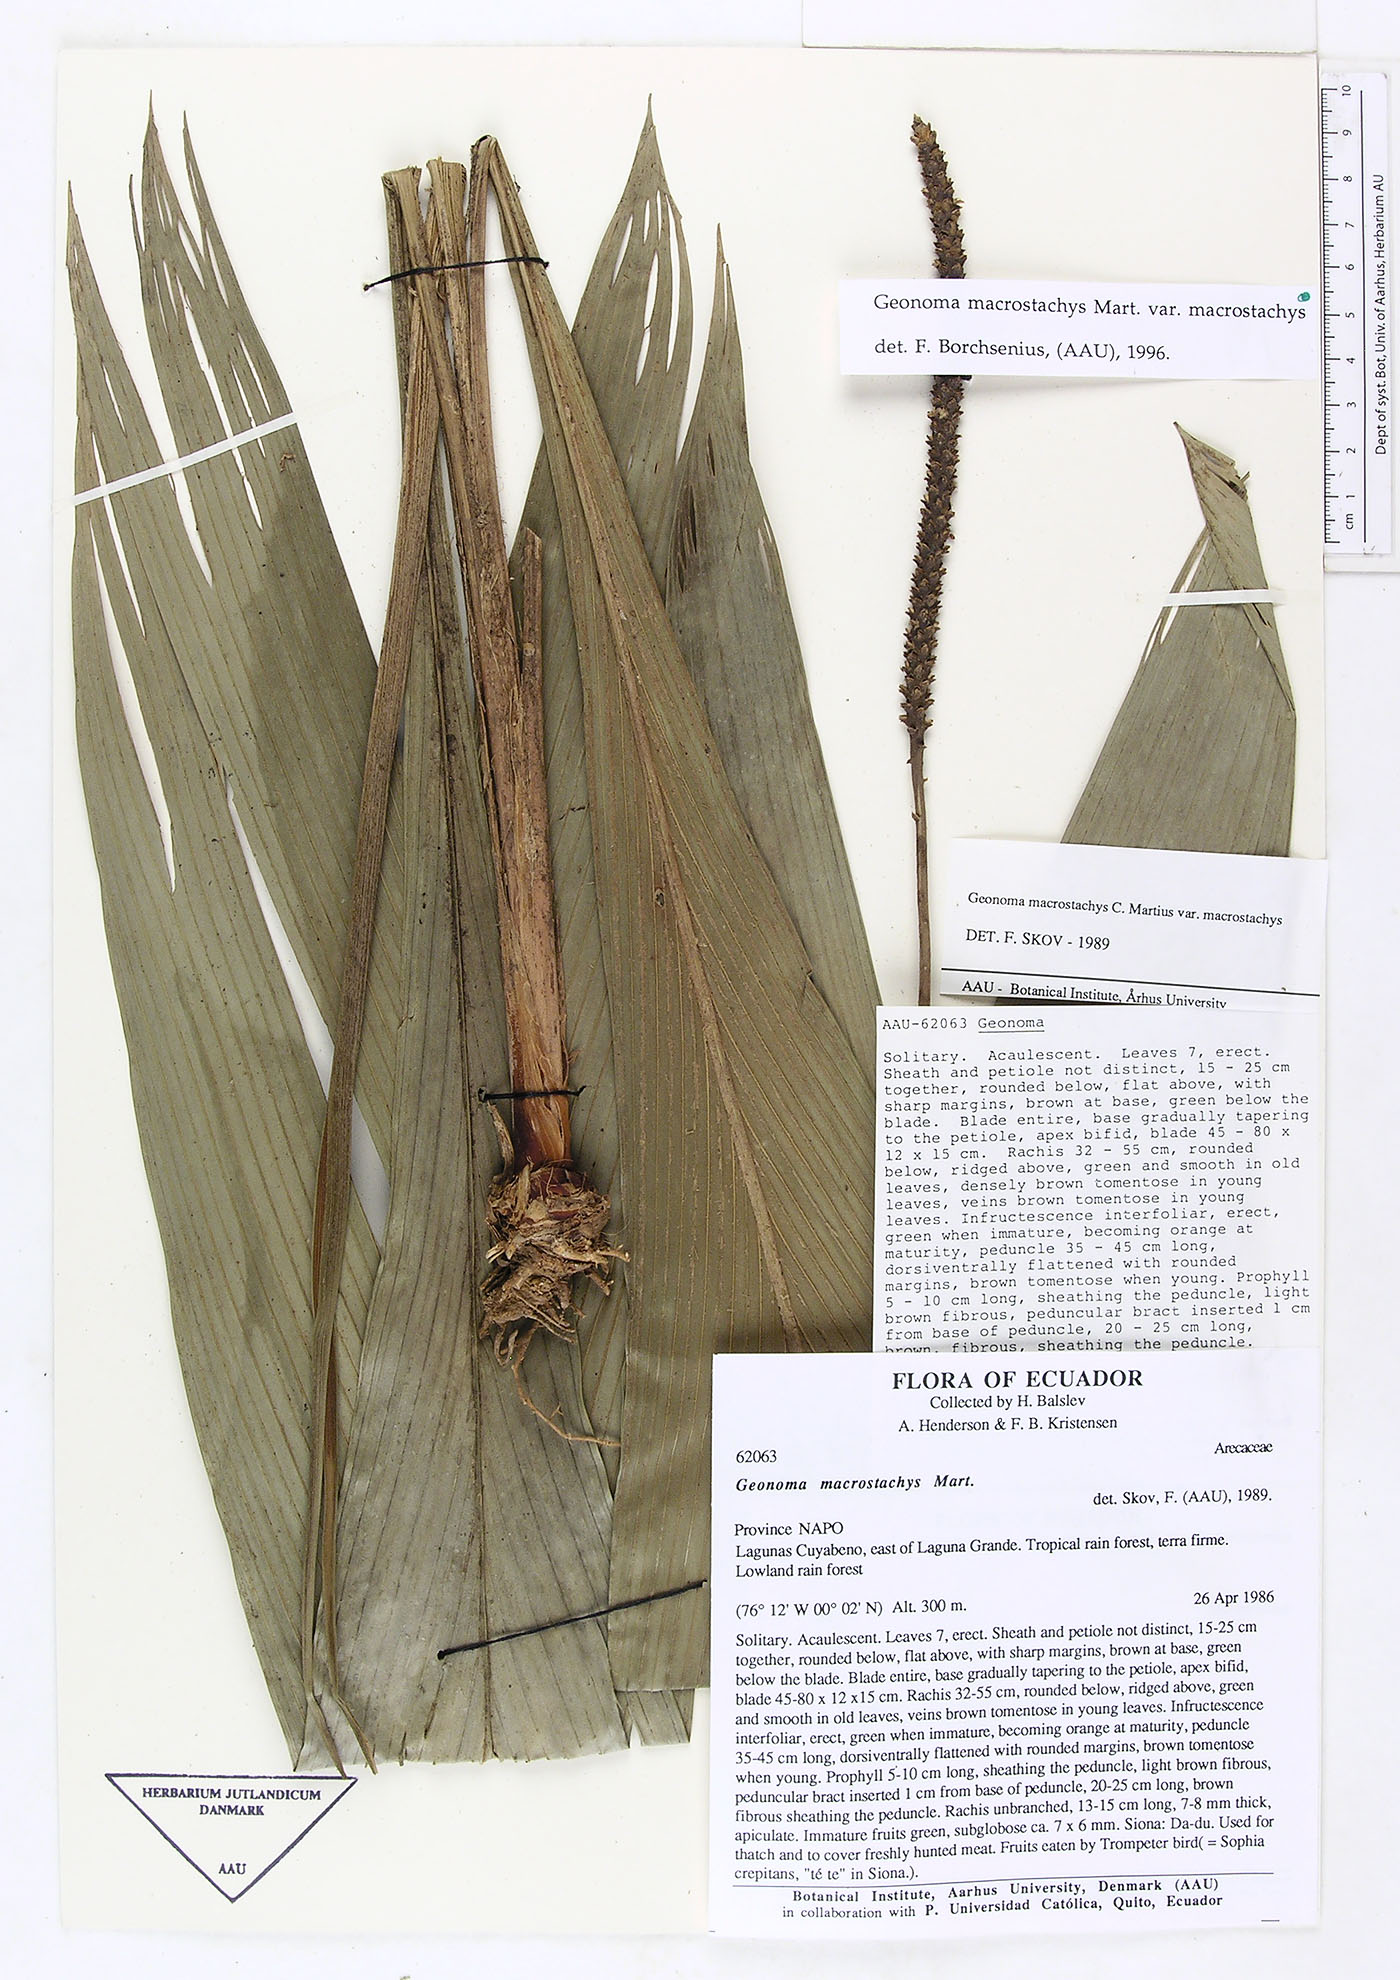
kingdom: Plantae
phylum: Tracheophyta
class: Liliopsida
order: Arecales
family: Arecaceae
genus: Geonoma
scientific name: Geonoma macrostachys
